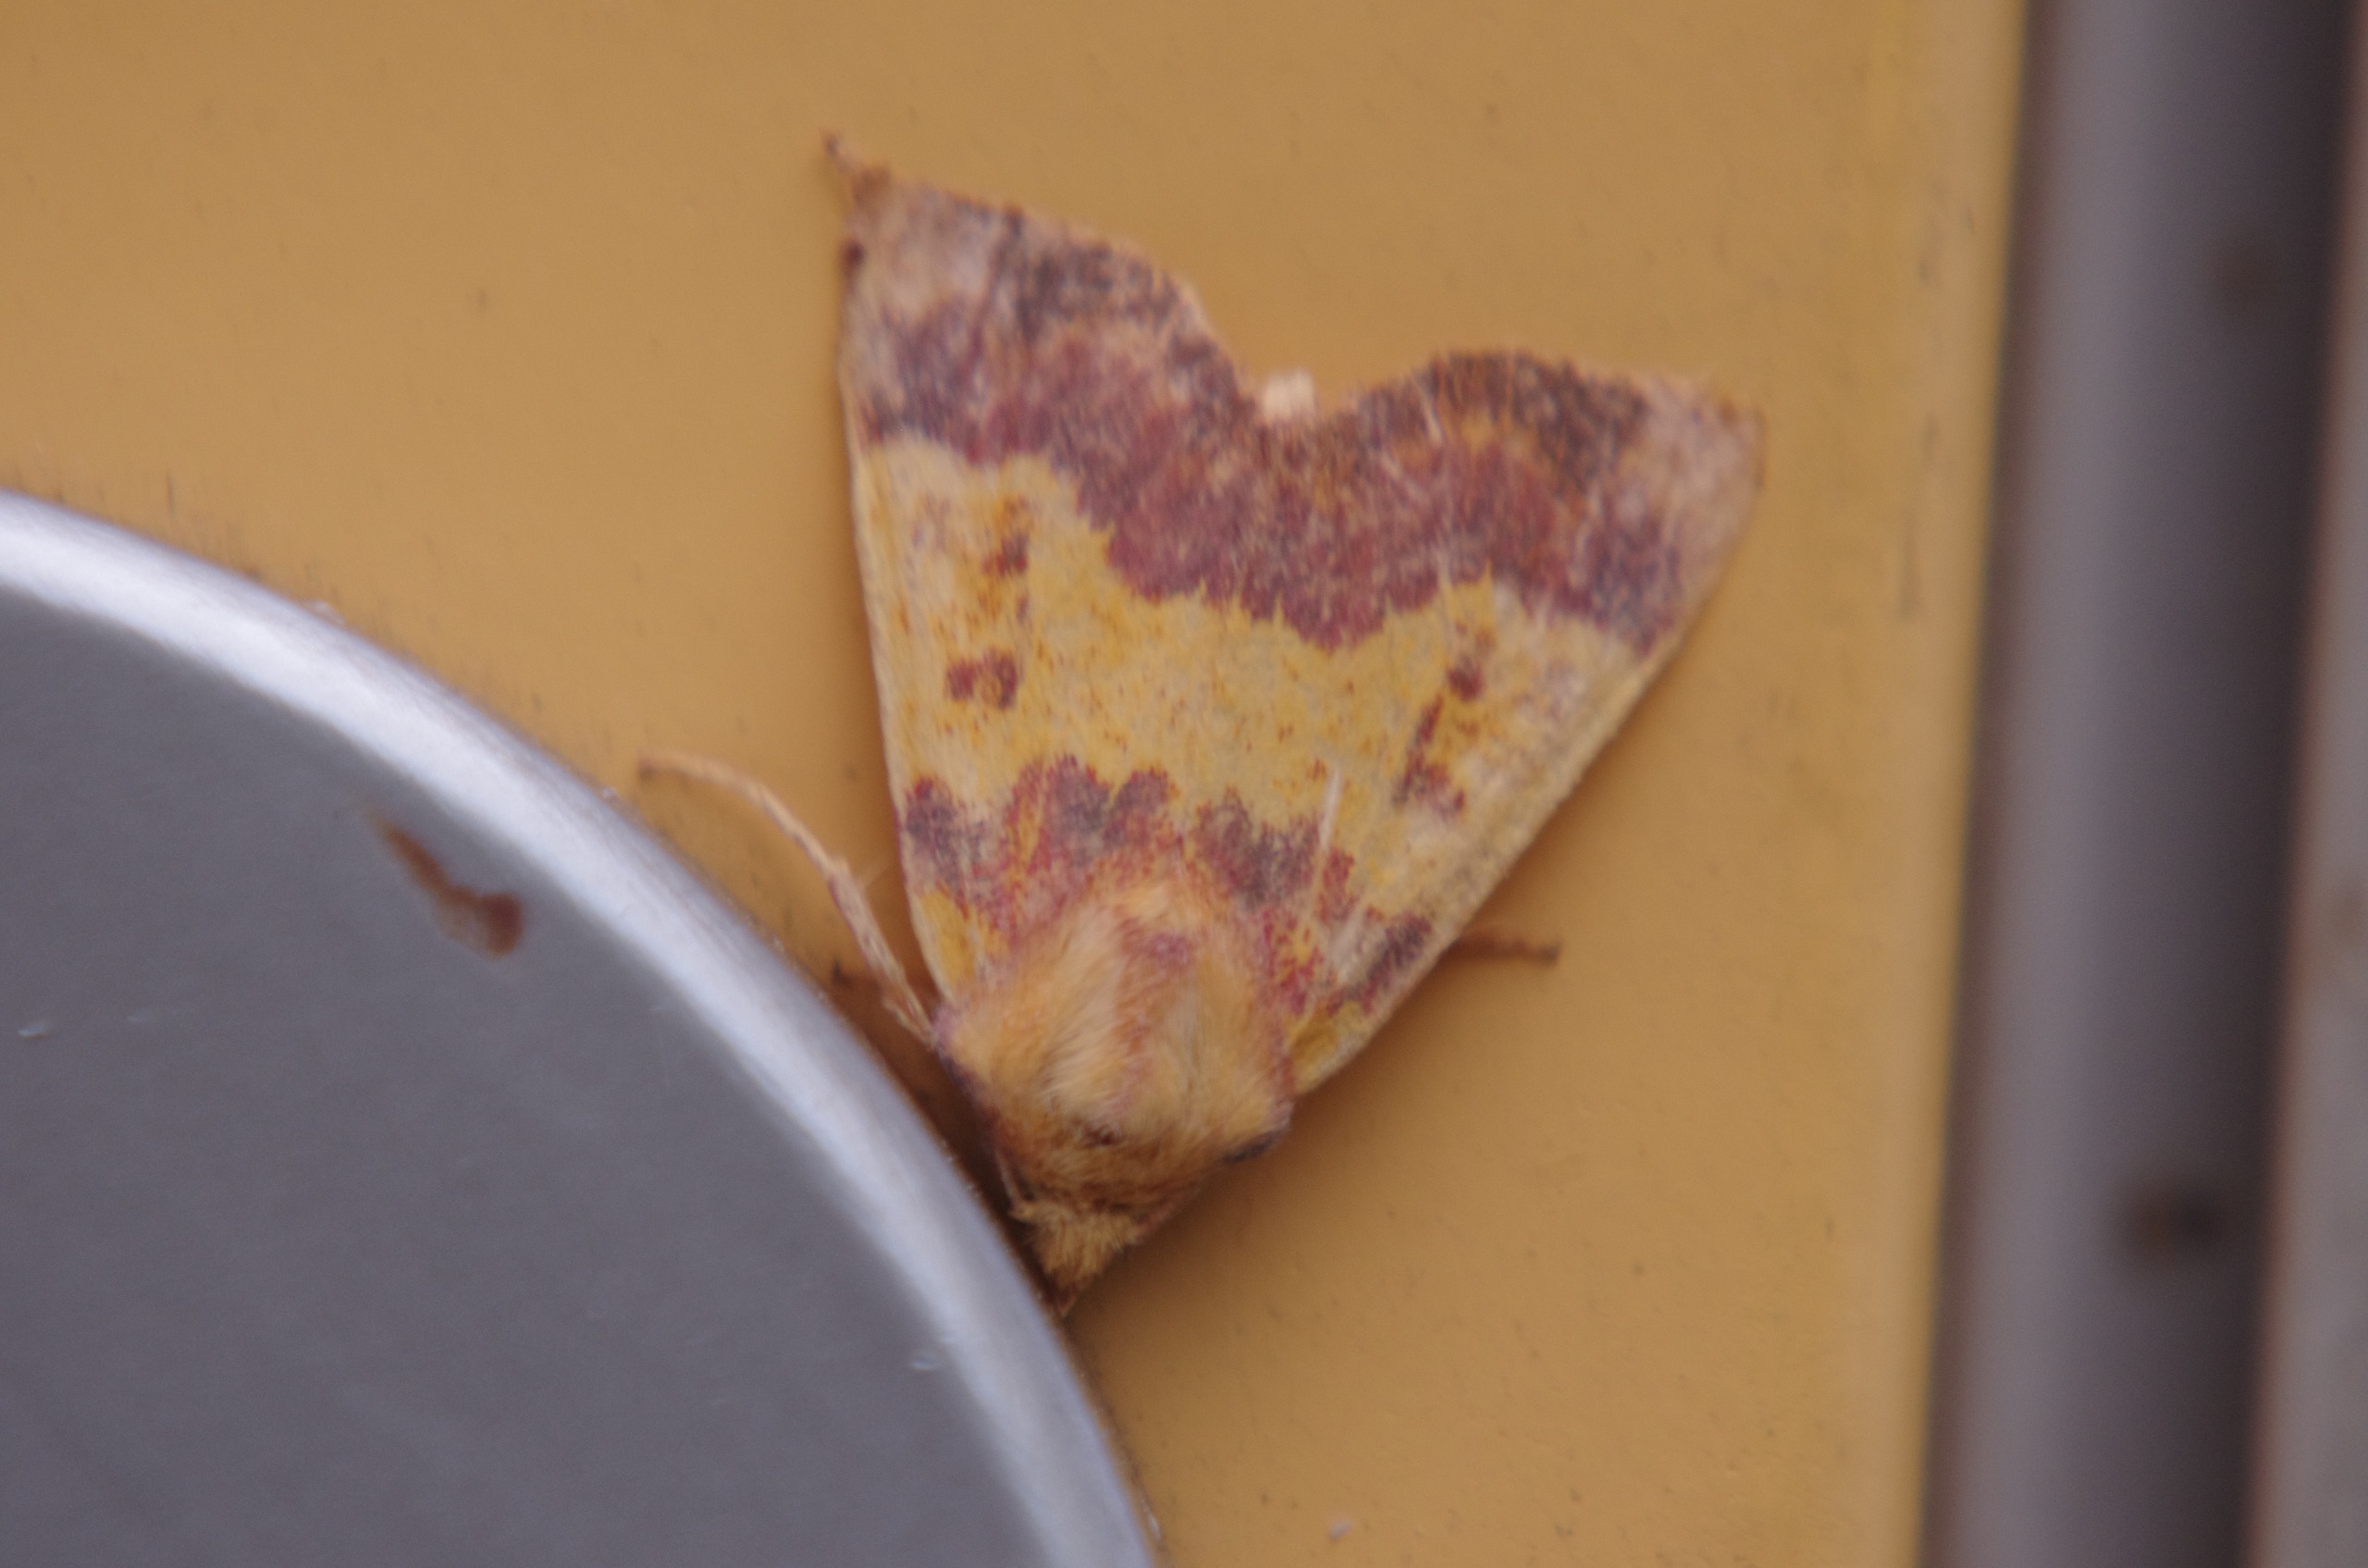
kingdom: Animalia
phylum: Arthropoda
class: Insecta
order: Lepidoptera
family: Noctuidae
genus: Tiliacea
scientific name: Tiliacea aurago
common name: Guldugle
